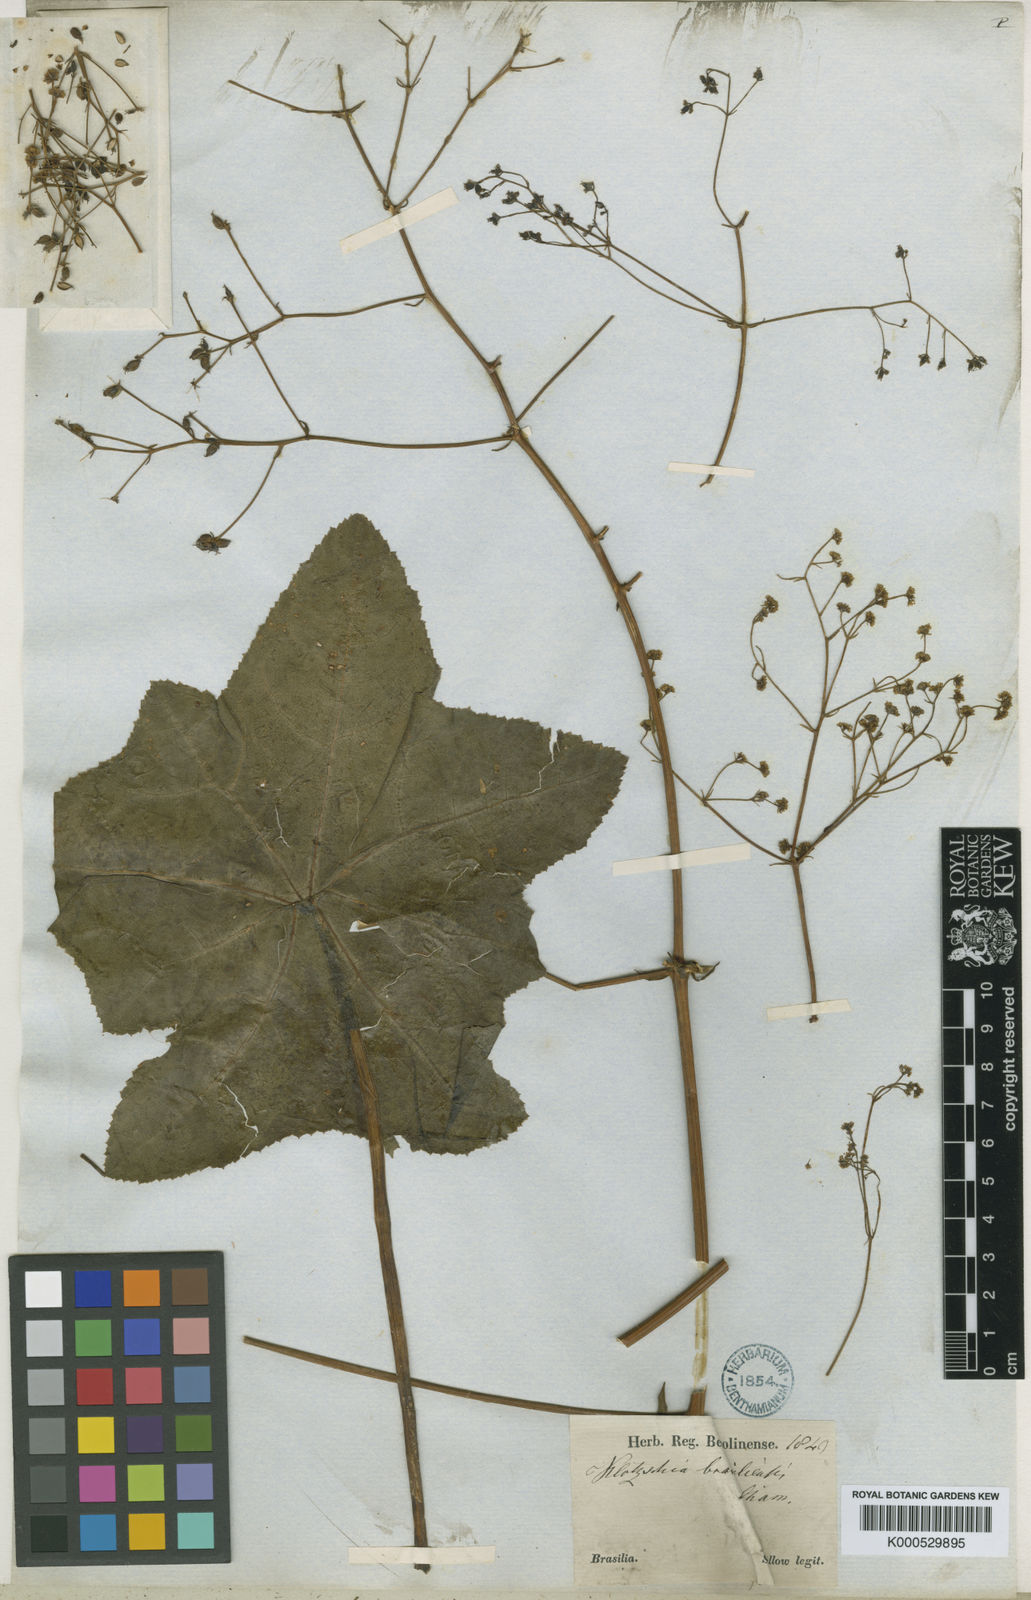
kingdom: Plantae
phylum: Tracheophyta
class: Magnoliopsida
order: Apiales
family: Apiaceae
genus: Klotzschia
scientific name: Klotzschia brasiliensis
